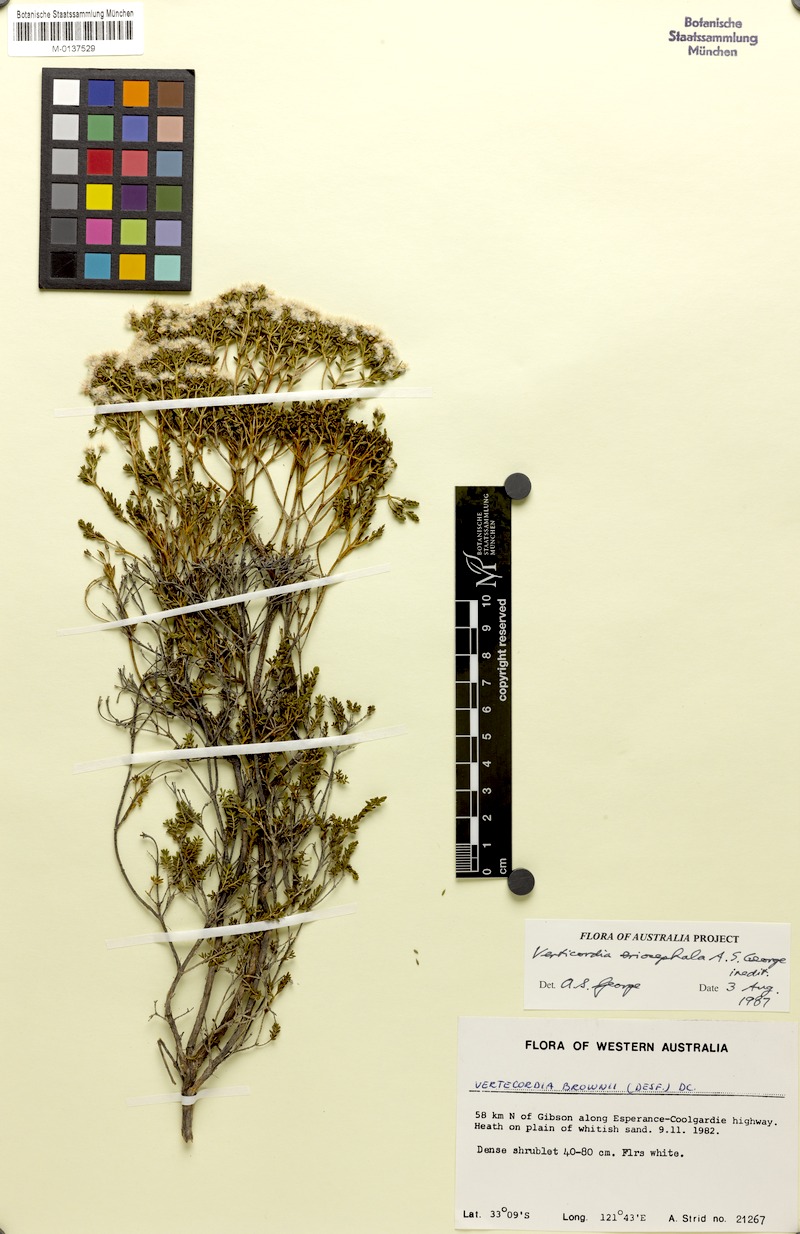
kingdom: Plantae
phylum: Tracheophyta
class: Magnoliopsida
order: Myrtales
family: Myrtaceae
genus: Verticordia
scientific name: Verticordia eriocephala
